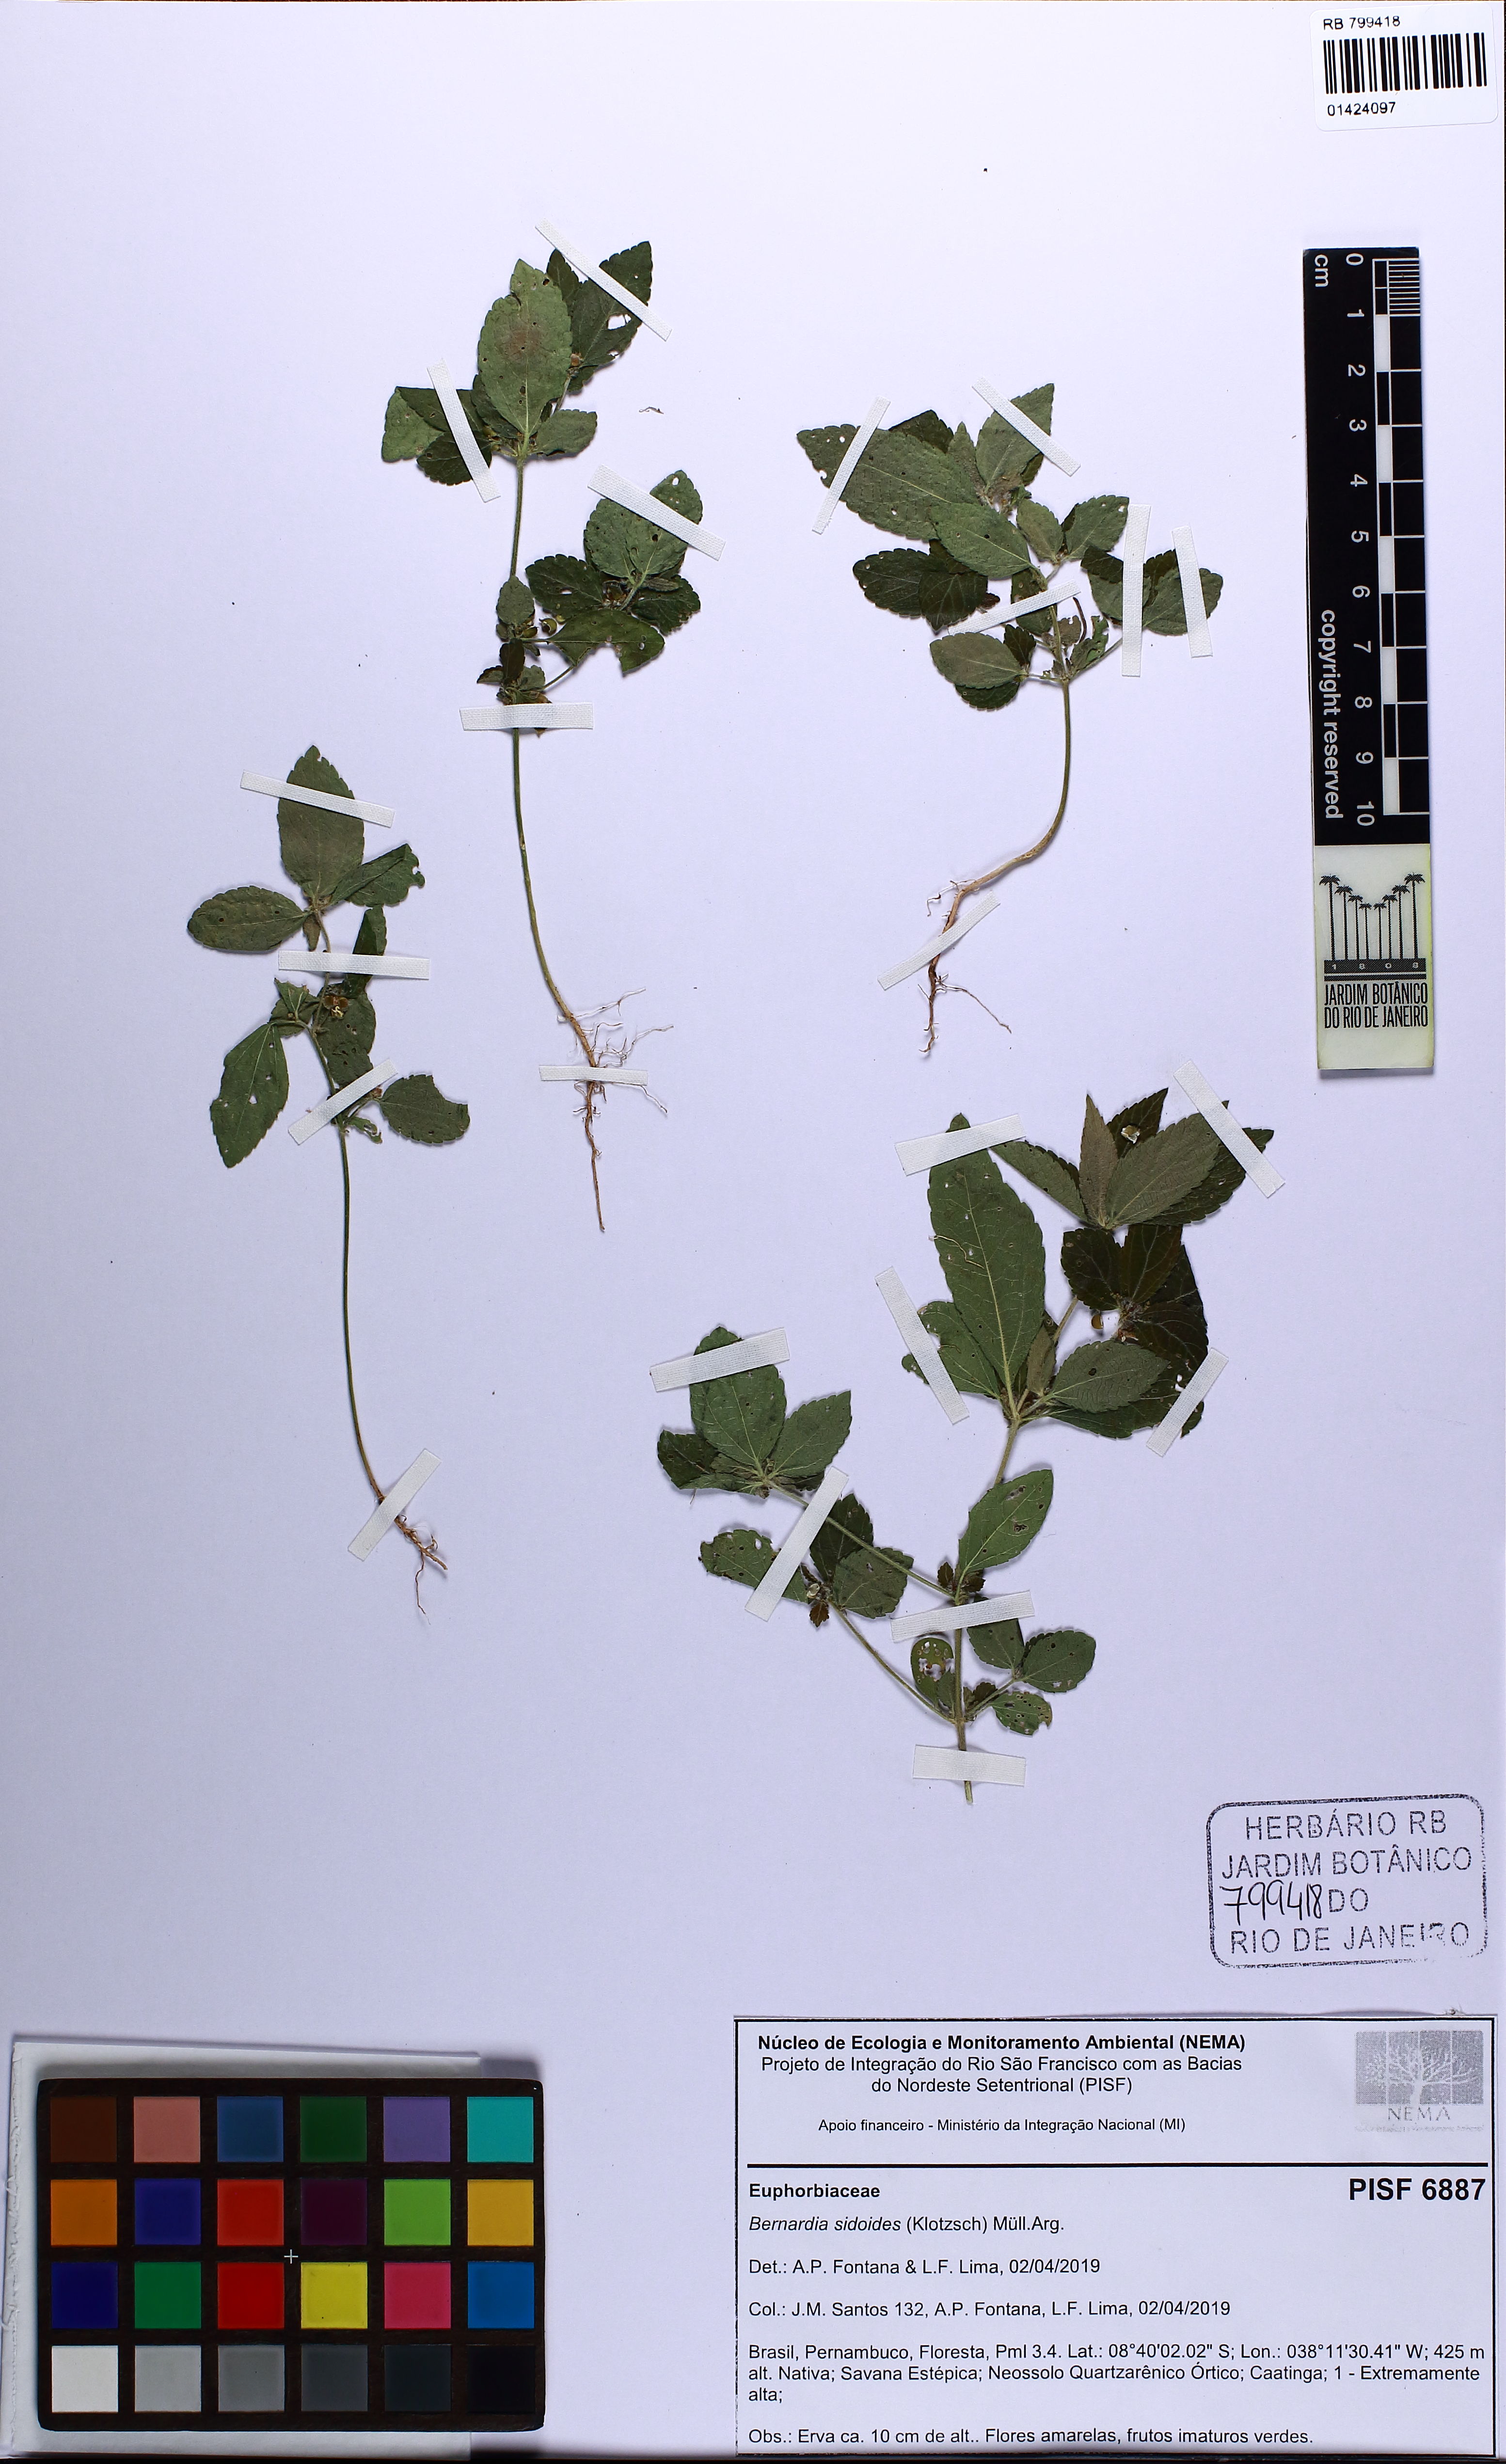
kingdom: Plantae
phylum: Tracheophyta
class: Magnoliopsida
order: Malpighiales
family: Euphorbiaceae
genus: Bernardia
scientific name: Bernardia sidoides
